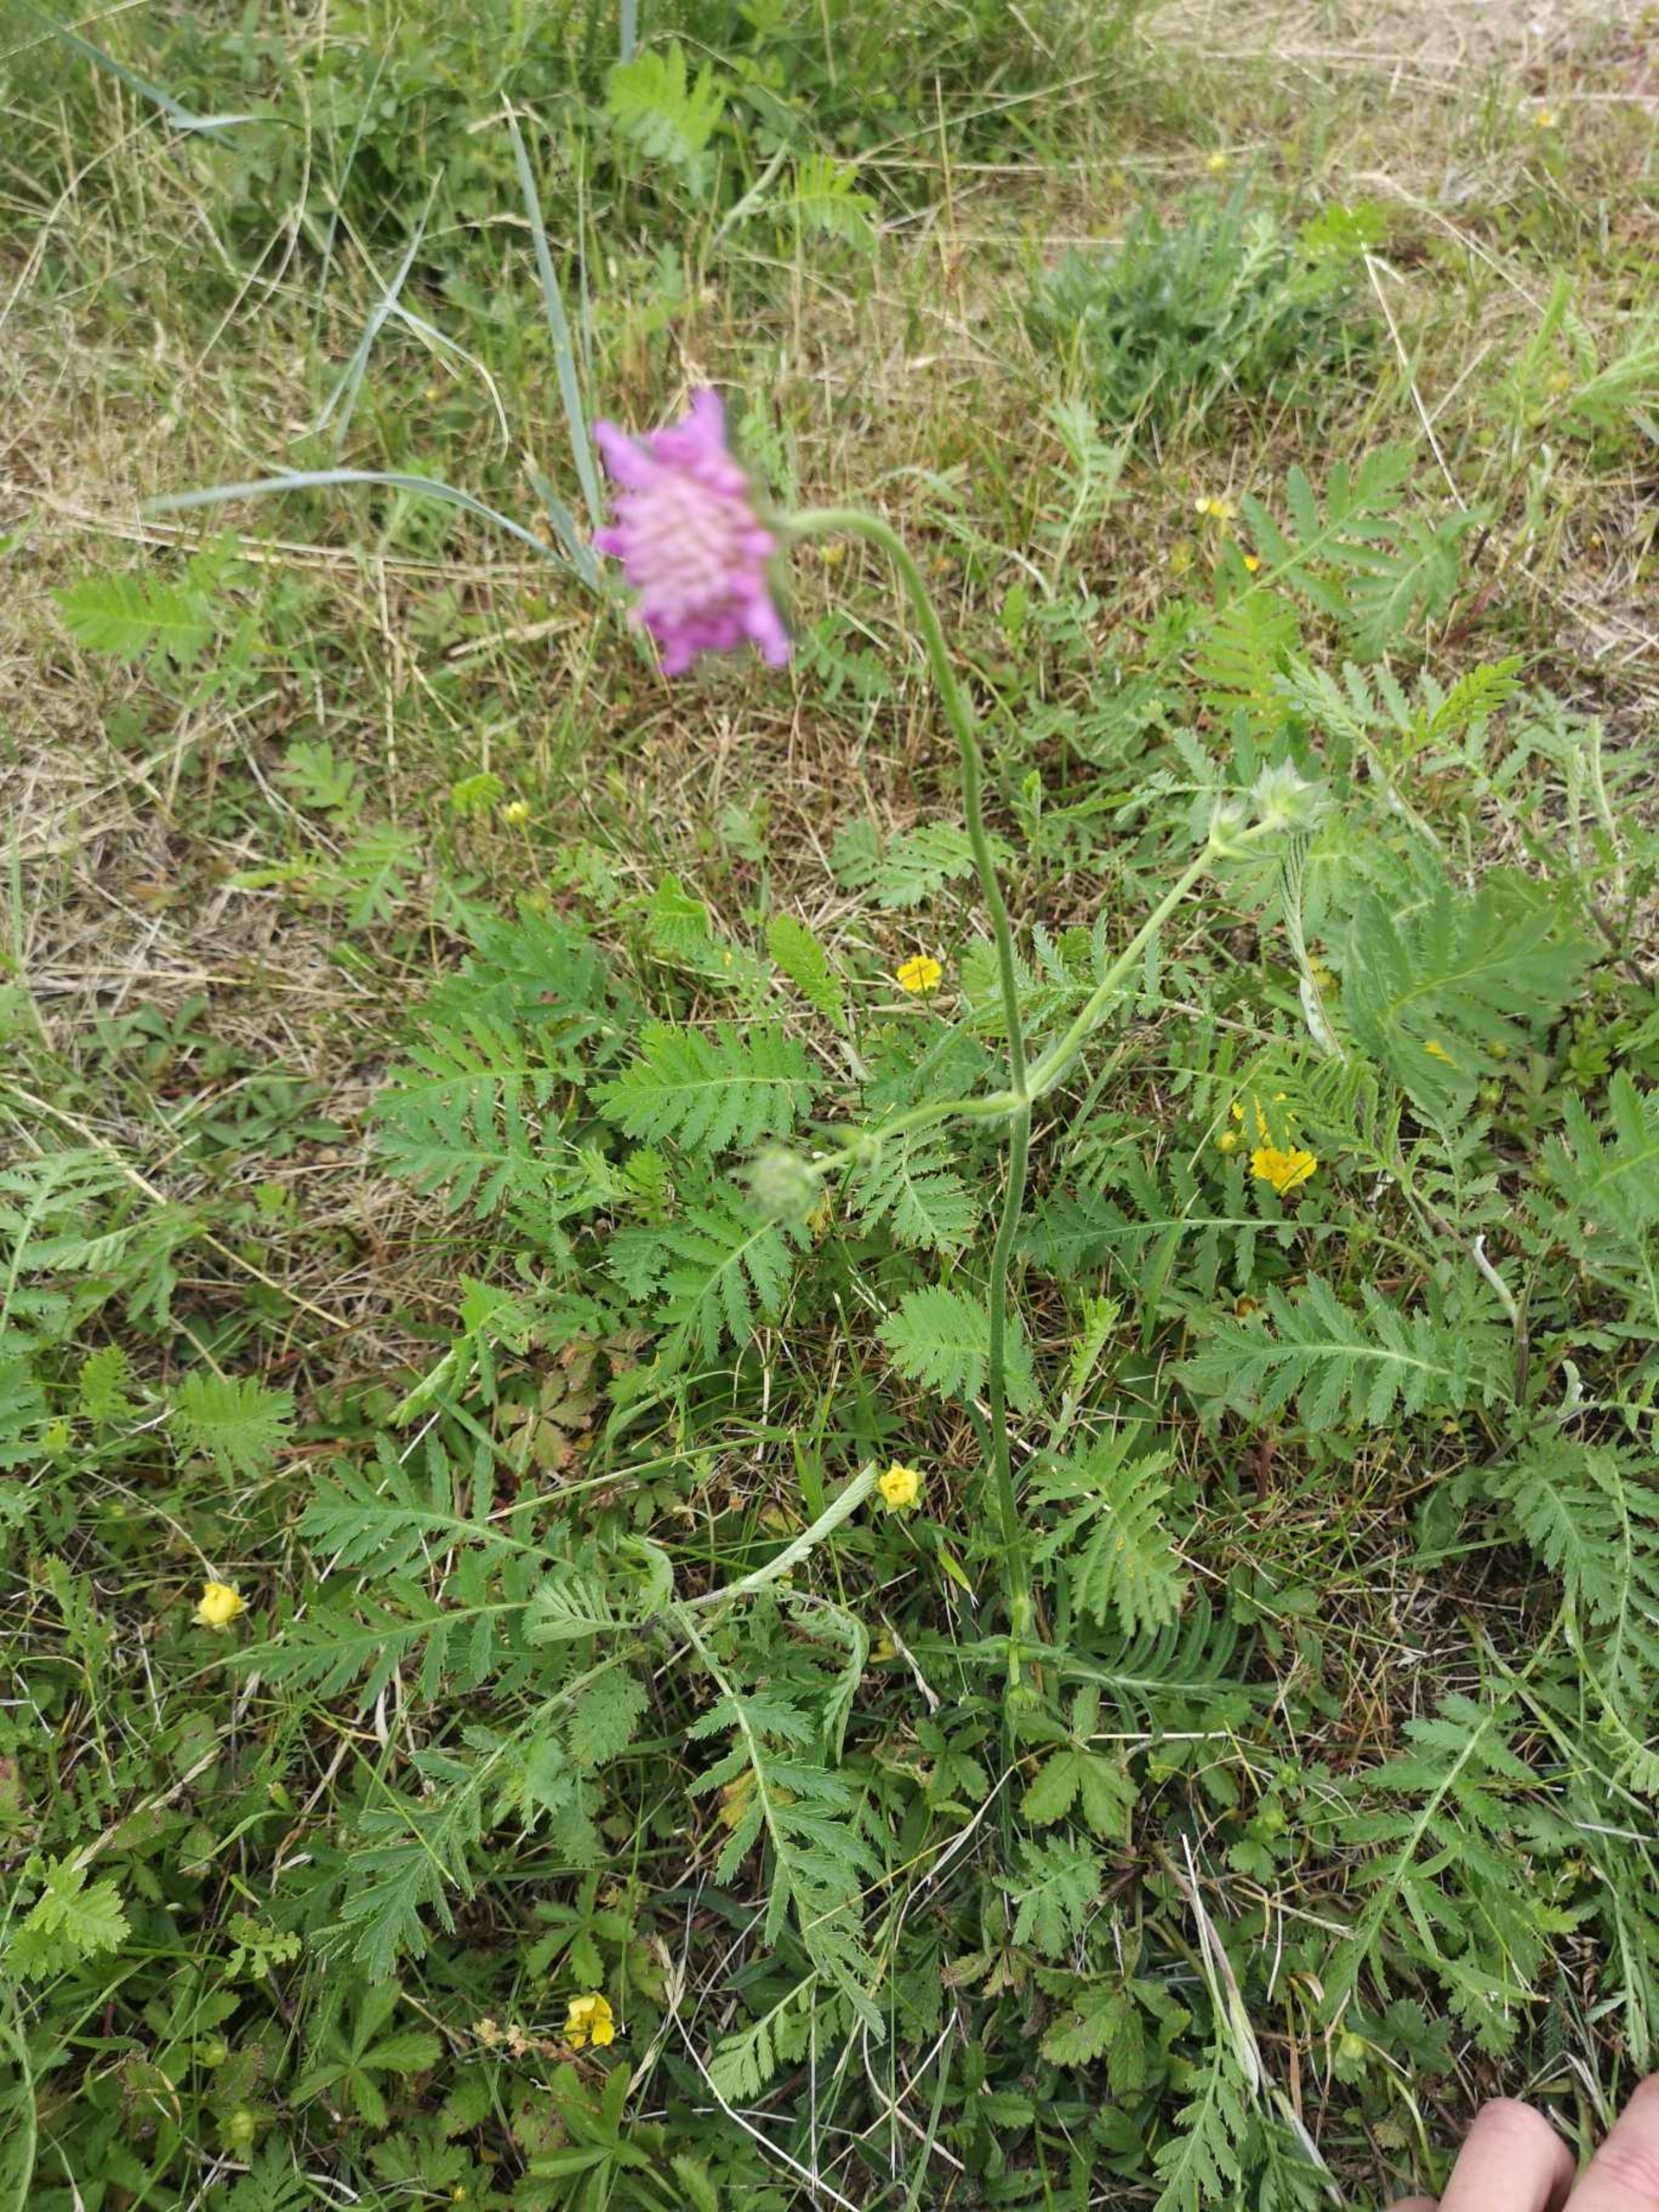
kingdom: Plantae
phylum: Tracheophyta
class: Magnoliopsida
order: Dipsacales
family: Caprifoliaceae
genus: Knautia
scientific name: Knautia arvensis
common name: Blåhat
